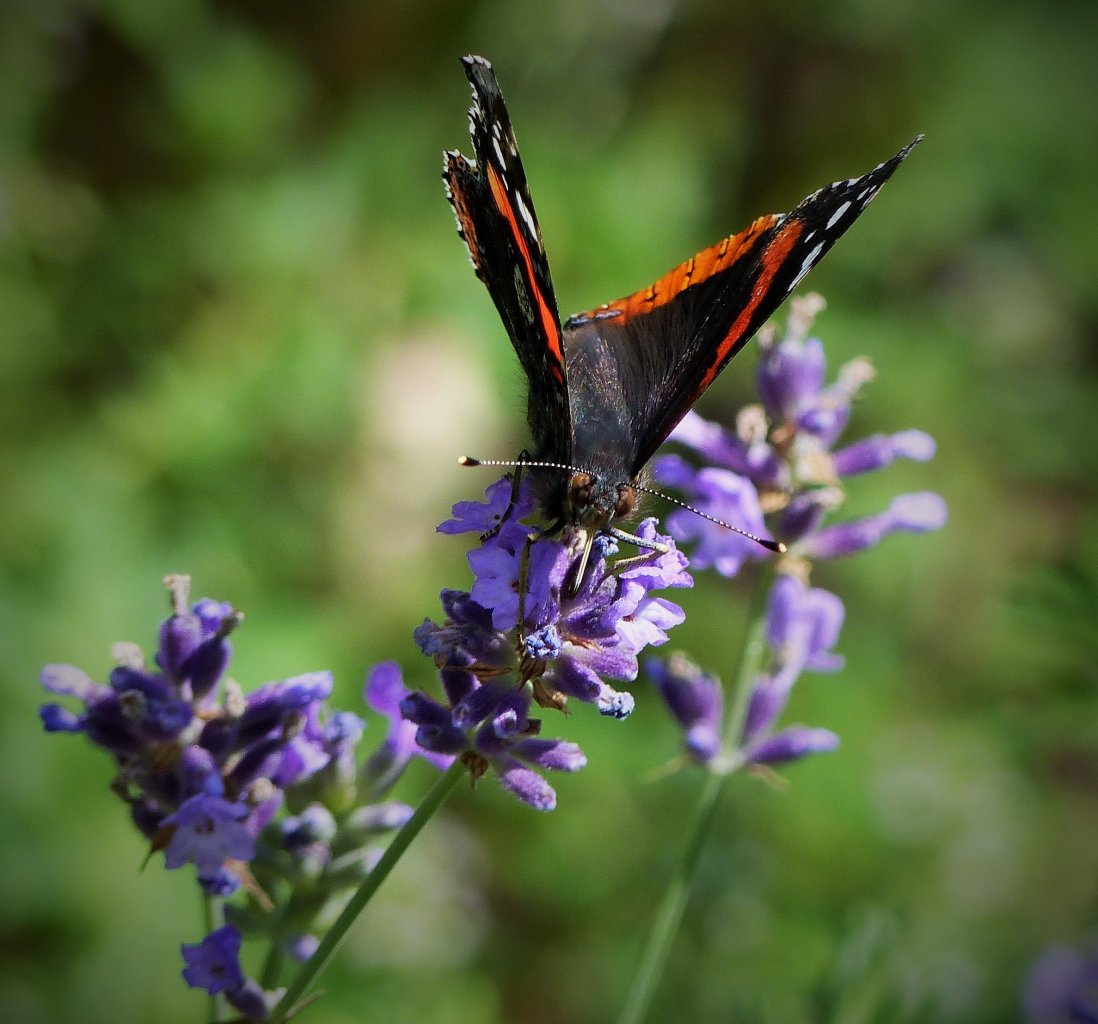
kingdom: Animalia
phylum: Arthropoda
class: Insecta
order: Lepidoptera
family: Nymphalidae
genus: Vanessa
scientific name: Vanessa cardui
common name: Painted Lady
